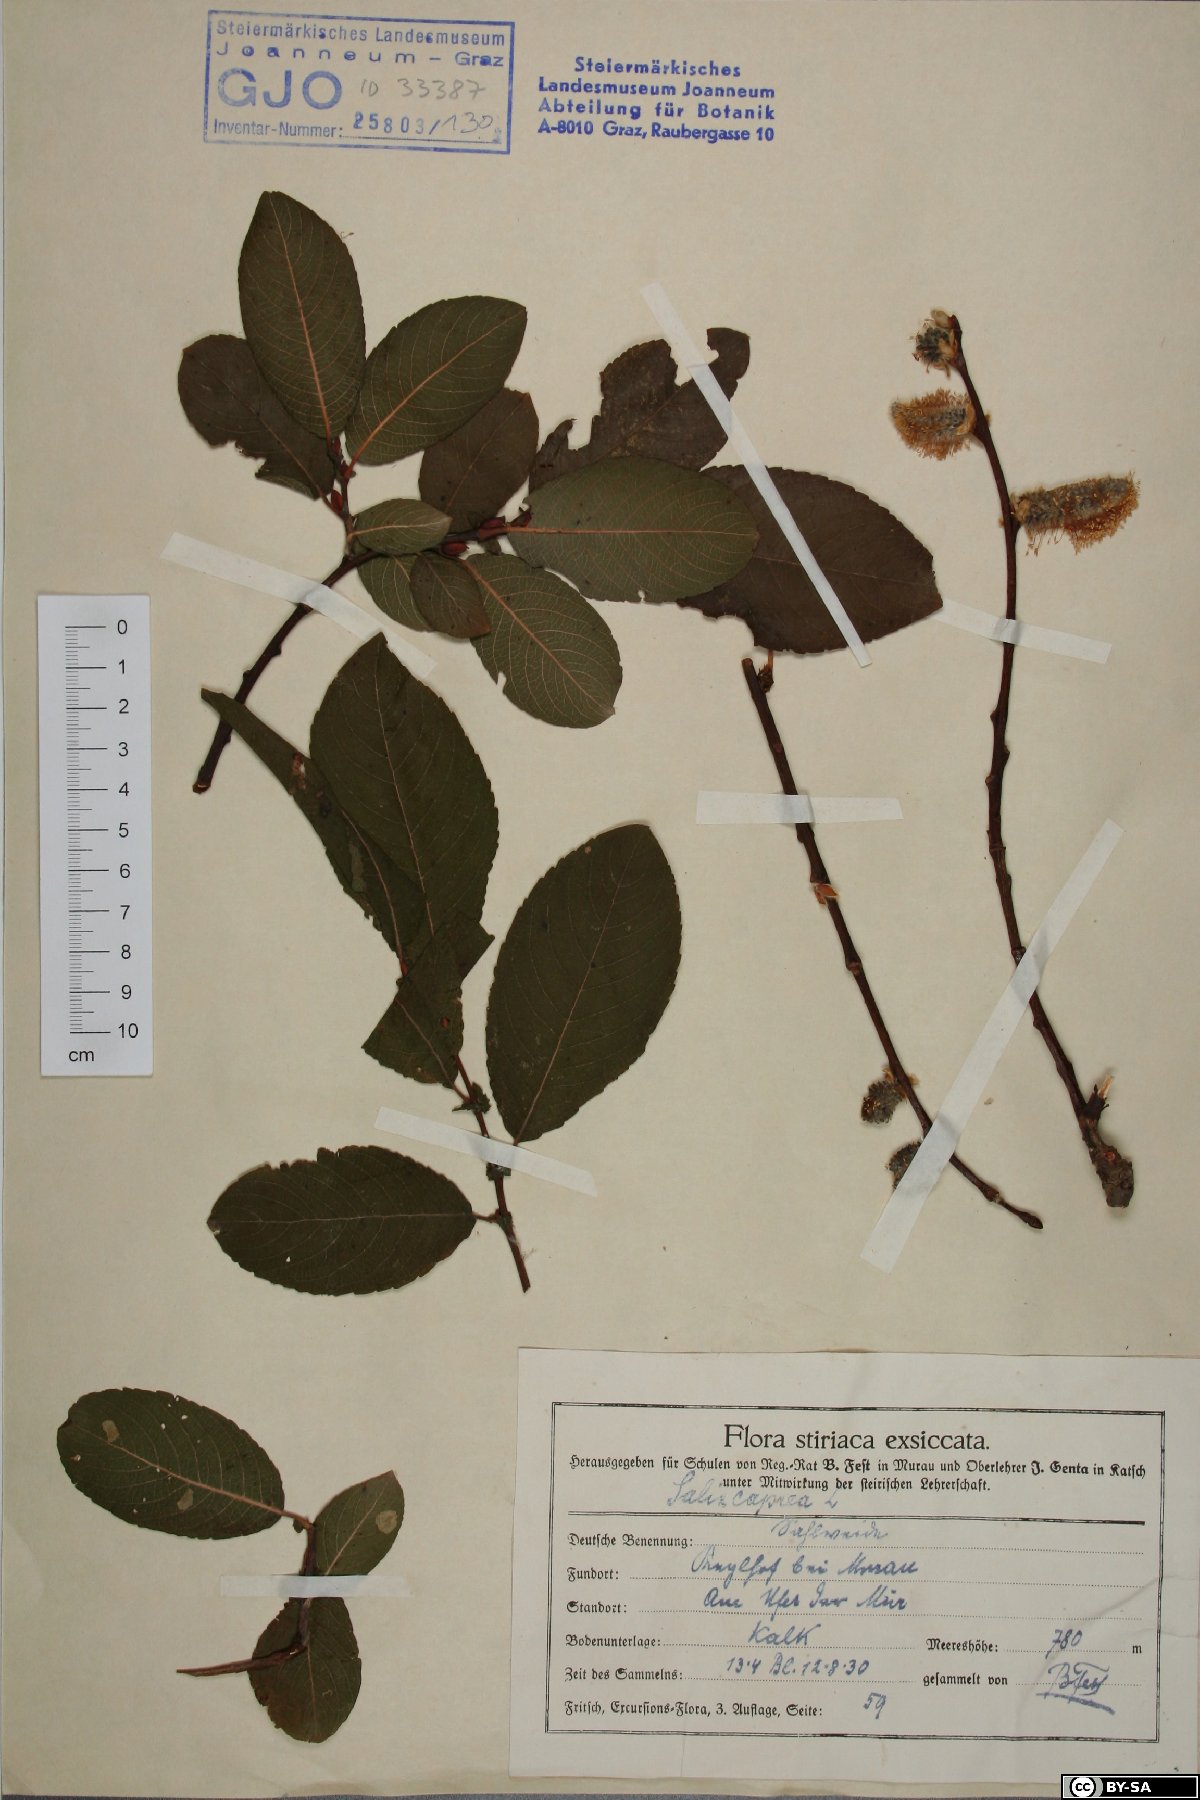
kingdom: Plantae
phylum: Tracheophyta
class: Magnoliopsida
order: Malpighiales
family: Salicaceae
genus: Salix
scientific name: Salix caprea
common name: Goat willow
